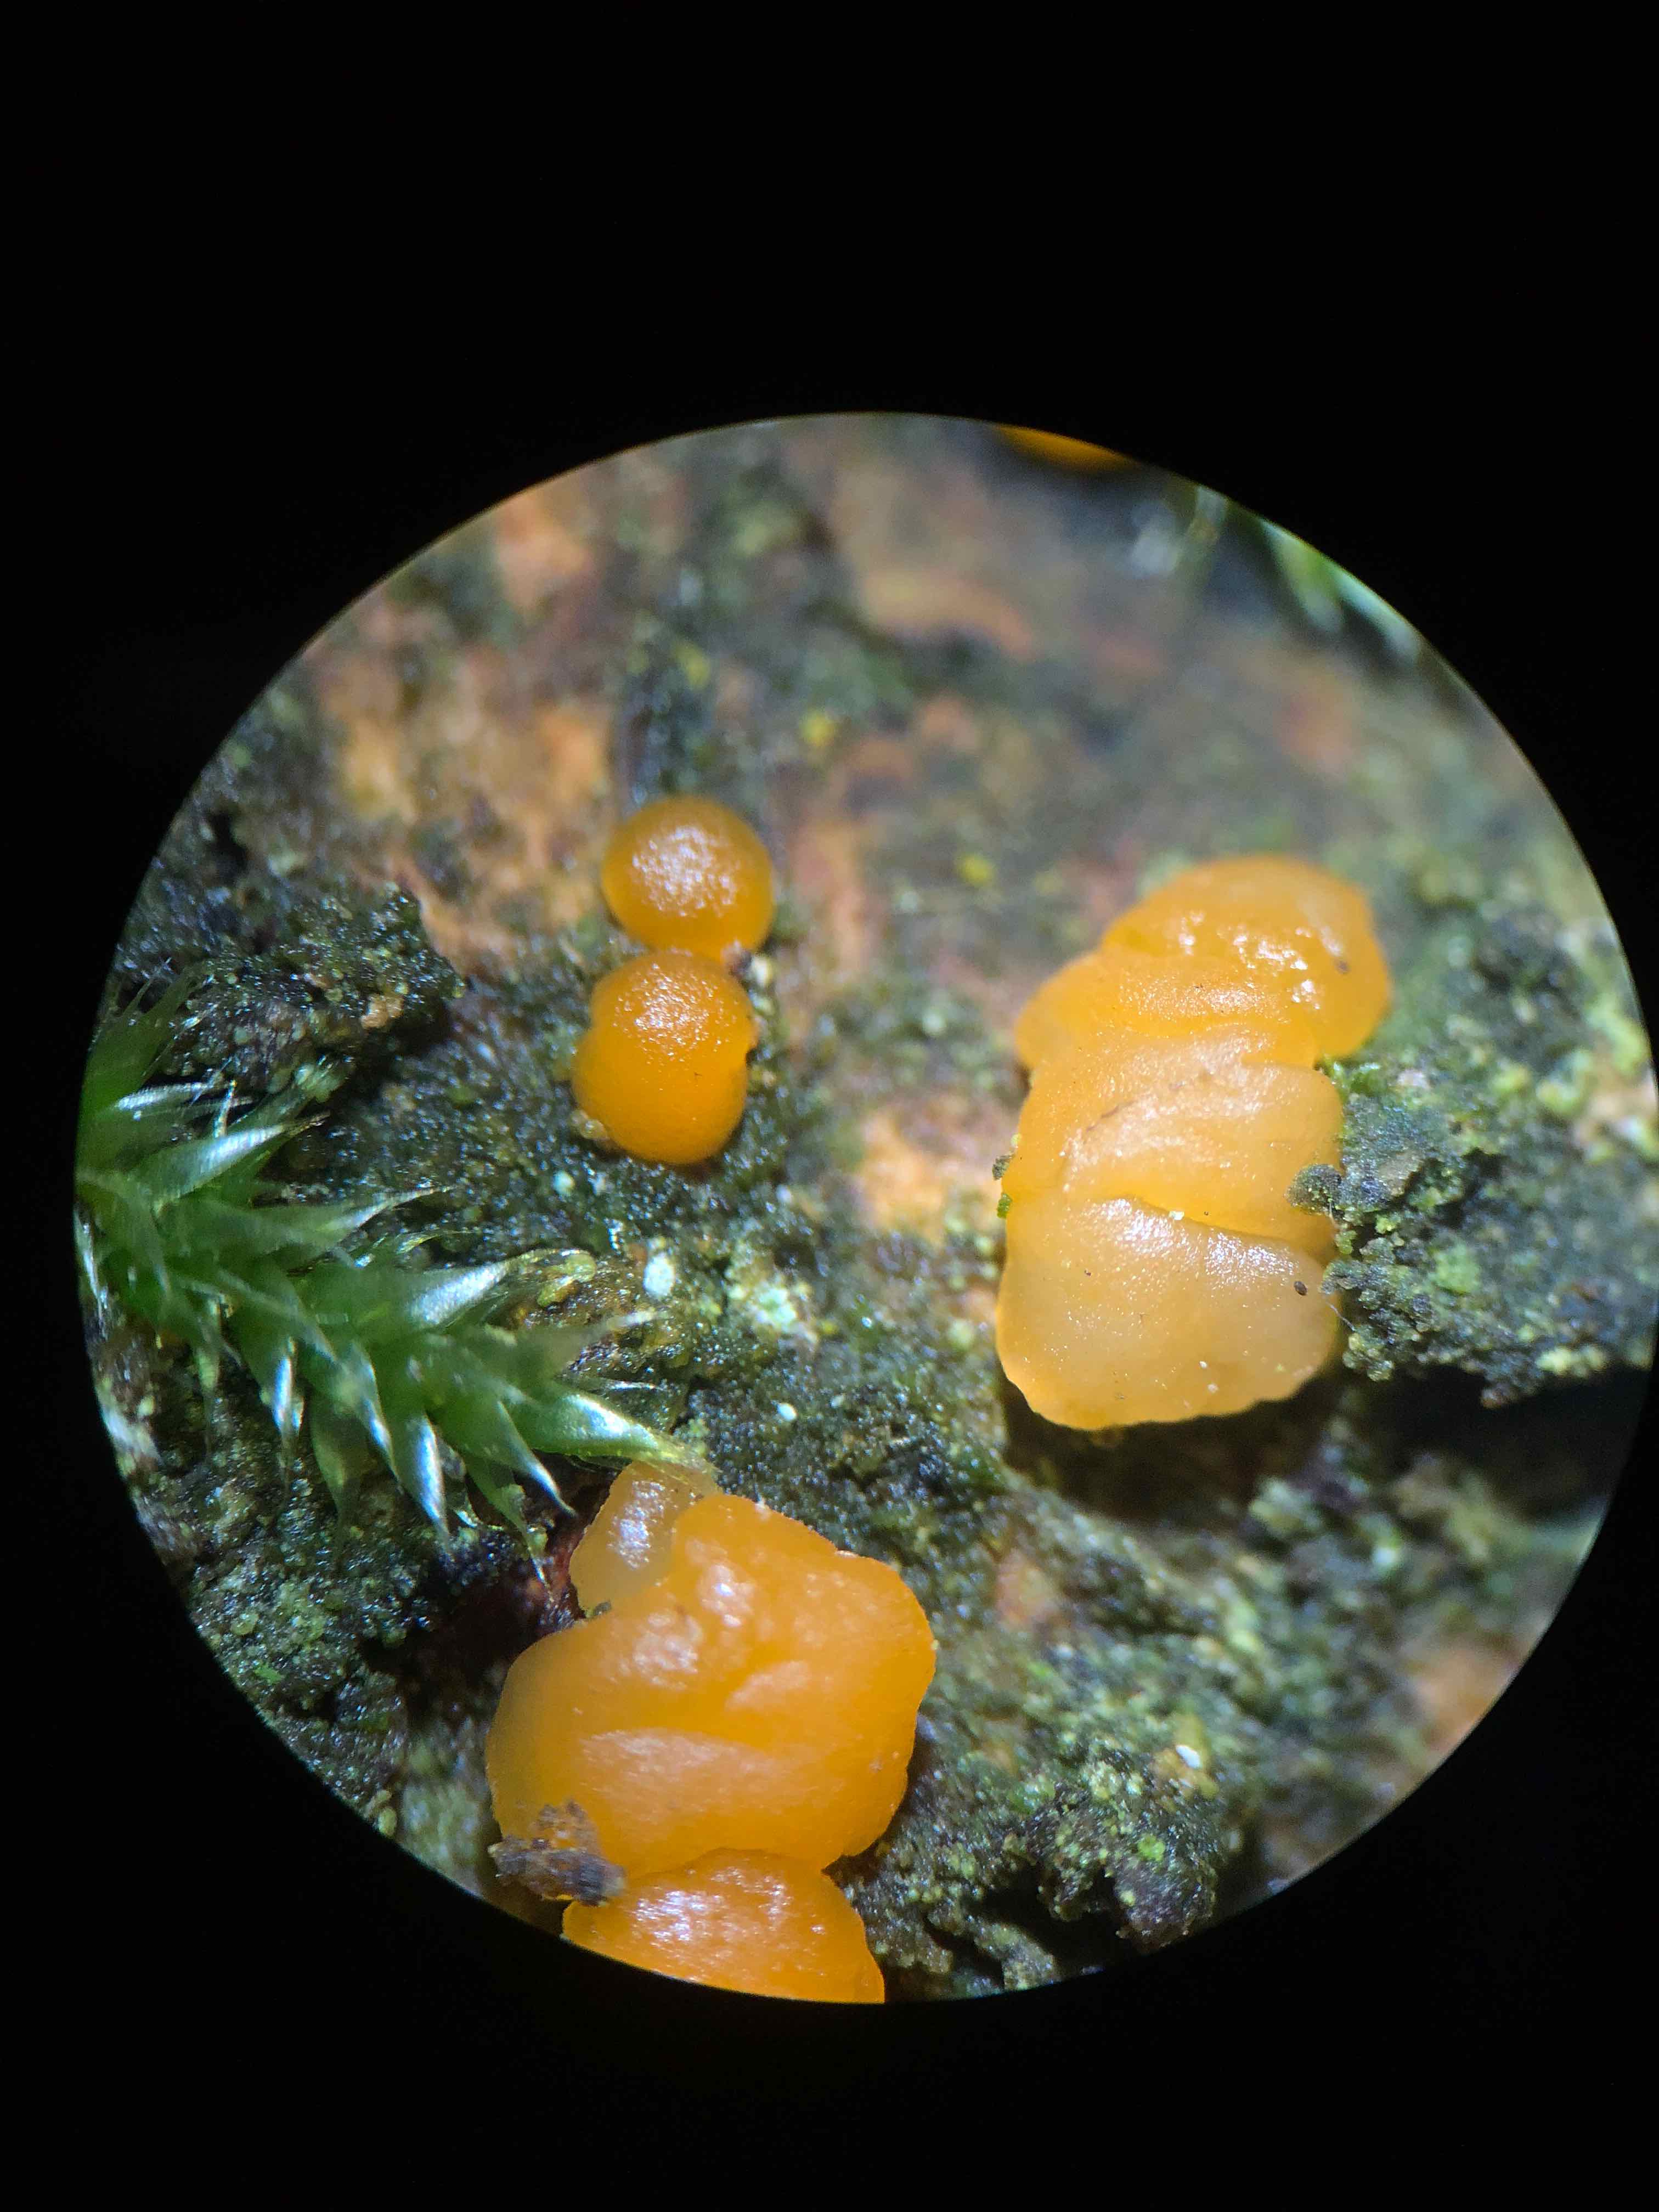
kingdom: Fungi
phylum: Basidiomycota
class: Dacrymycetes
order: Dacrymycetales
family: Dacrymycetaceae
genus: Dacrymyces
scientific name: Dacrymyces capitatus
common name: stilket tåresvamp
